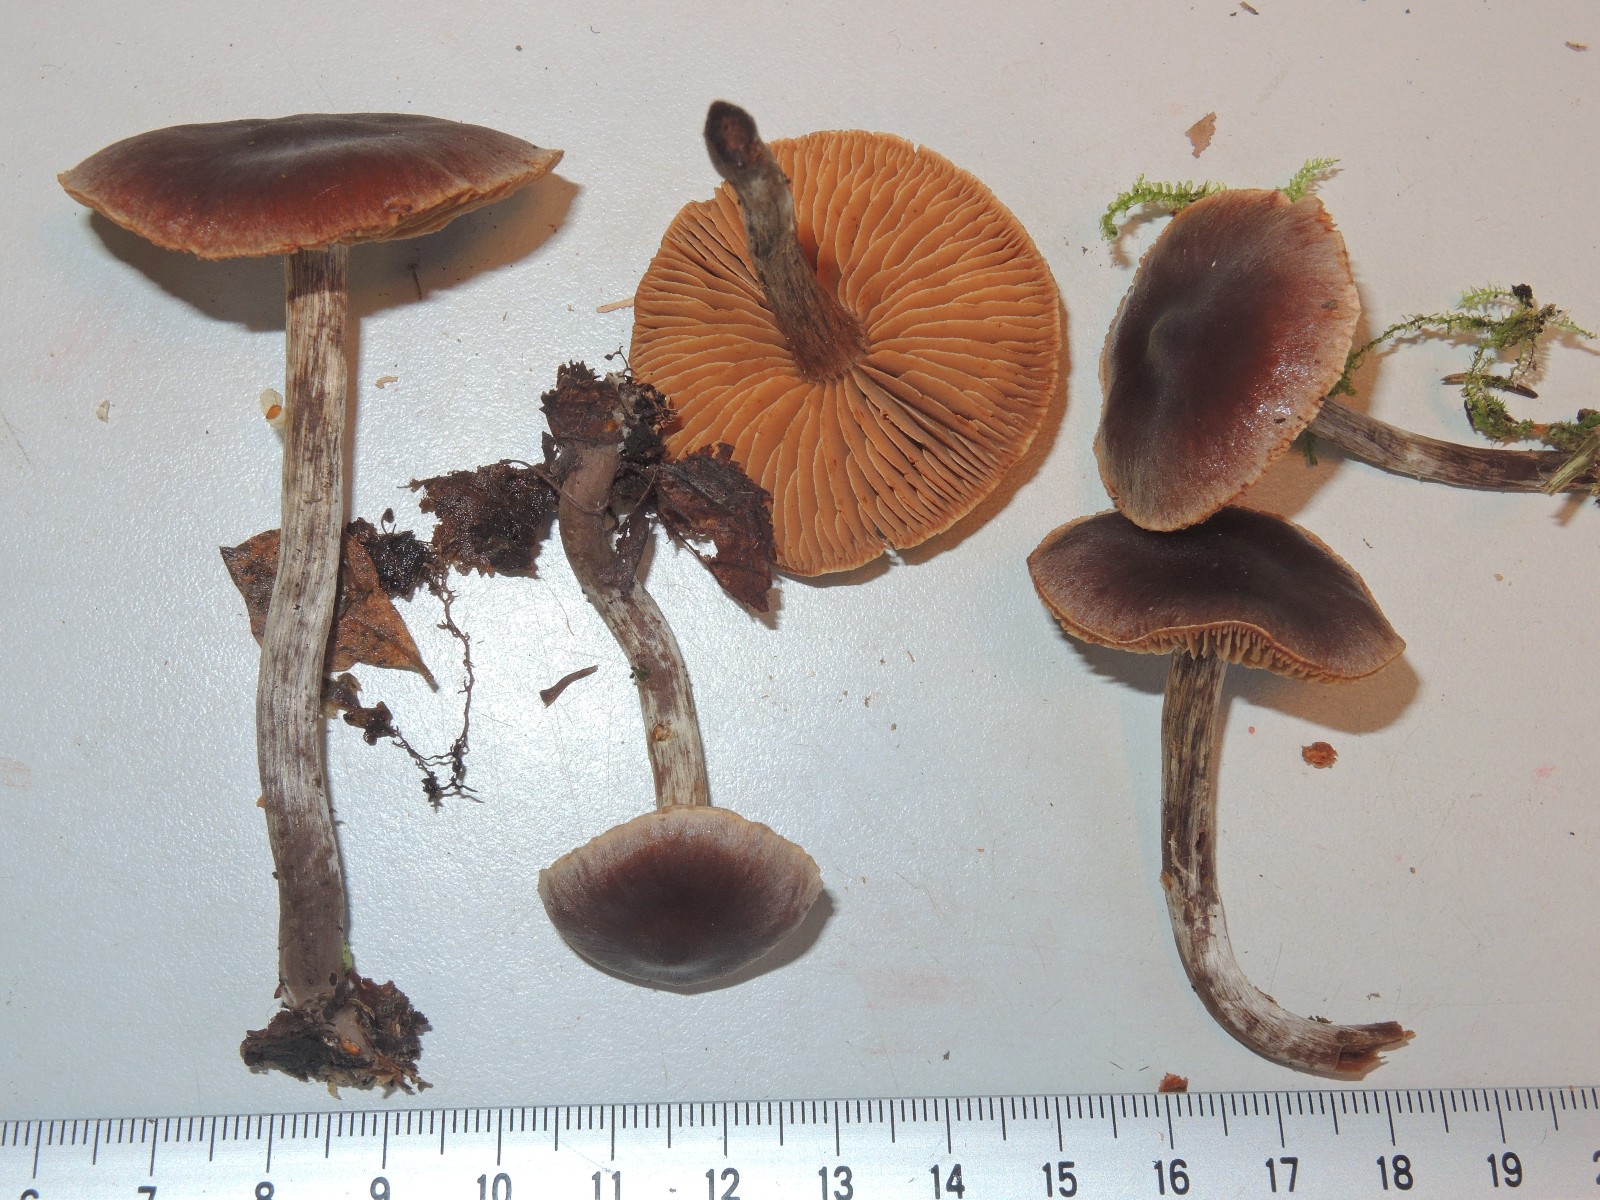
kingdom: Fungi
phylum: Basidiomycota
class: Agaricomycetes
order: Agaricales
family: Cortinariaceae
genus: Cortinarius
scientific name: Cortinarius atroalbus
